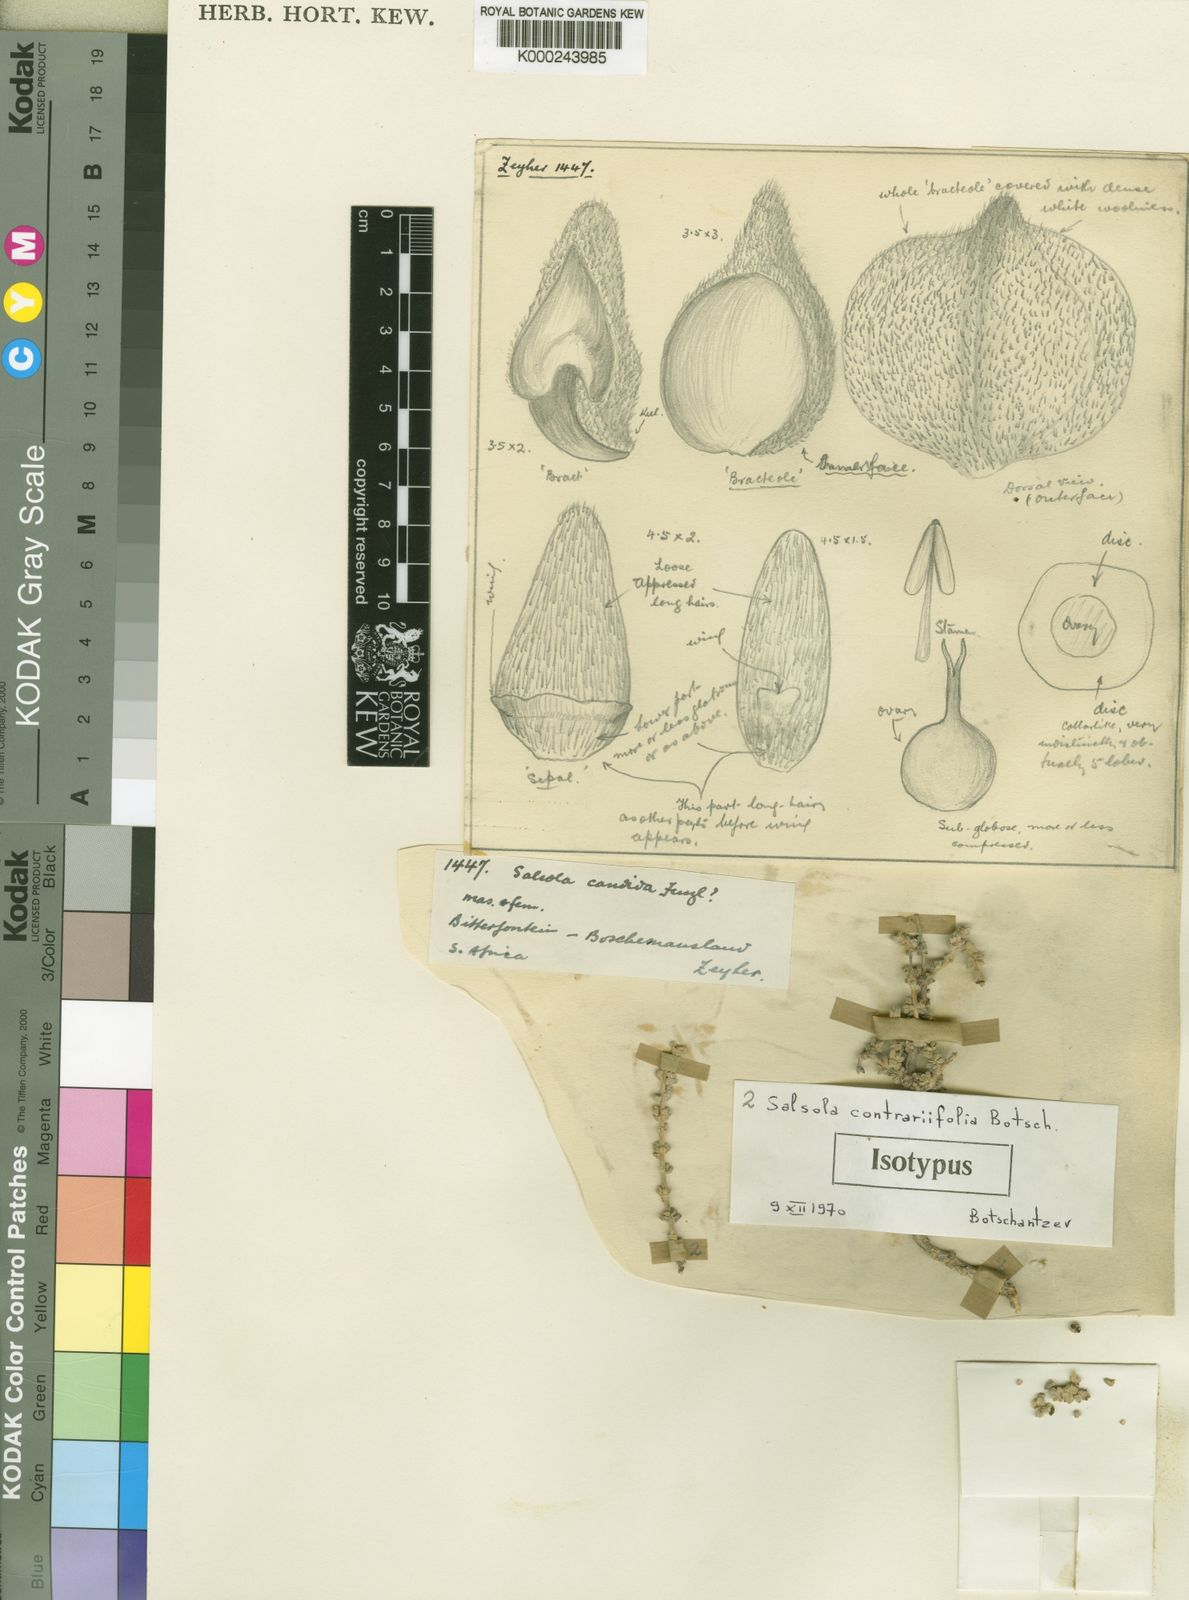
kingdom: Plantae
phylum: Tracheophyta
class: Magnoliopsida
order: Caryophyllales
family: Amaranthaceae
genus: Caroxylon
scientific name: Caroxylon contrariifolium
